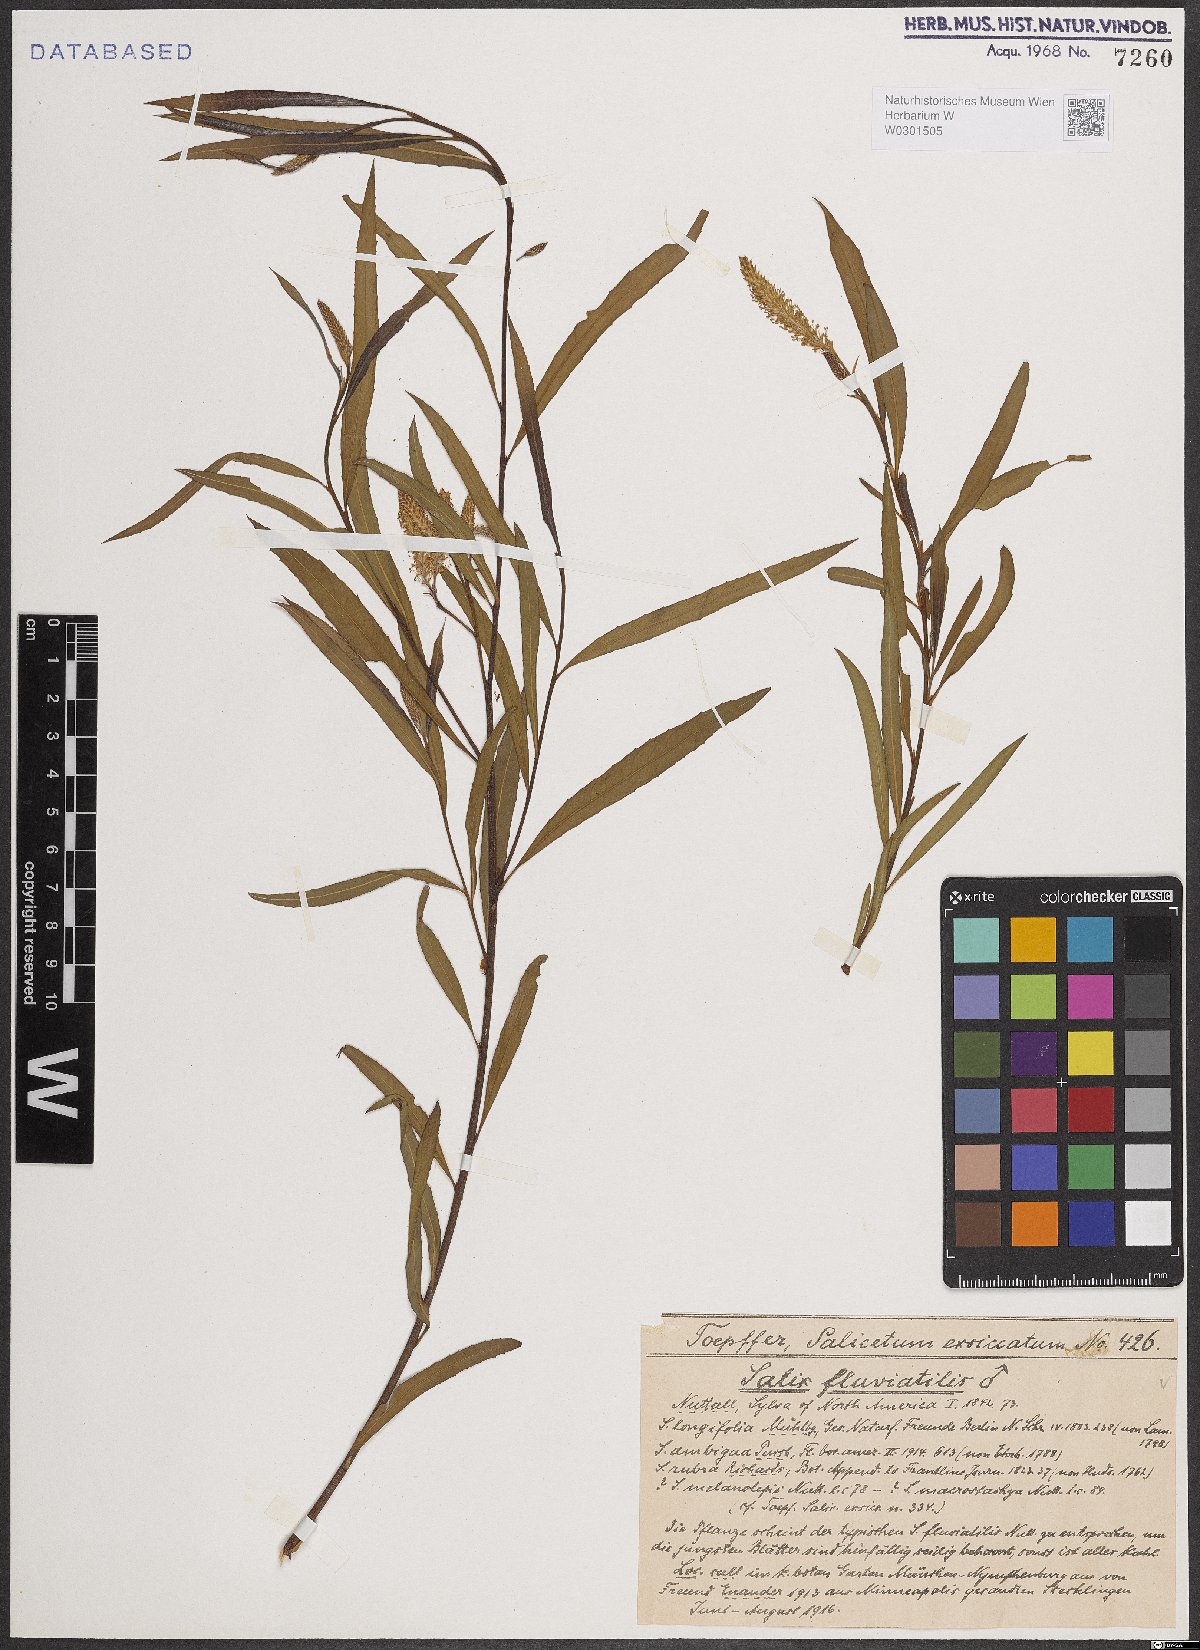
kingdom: Plantae
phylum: Tracheophyta
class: Magnoliopsida
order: Malpighiales
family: Salicaceae
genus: Salix
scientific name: Salix melanopsis
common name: Dusky willow
